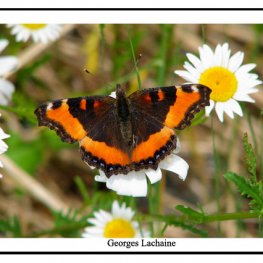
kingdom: Animalia
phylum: Arthropoda
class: Insecta
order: Lepidoptera
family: Nymphalidae
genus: Aglais
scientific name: Aglais milberti
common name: Milbert's Tortoiseshell
